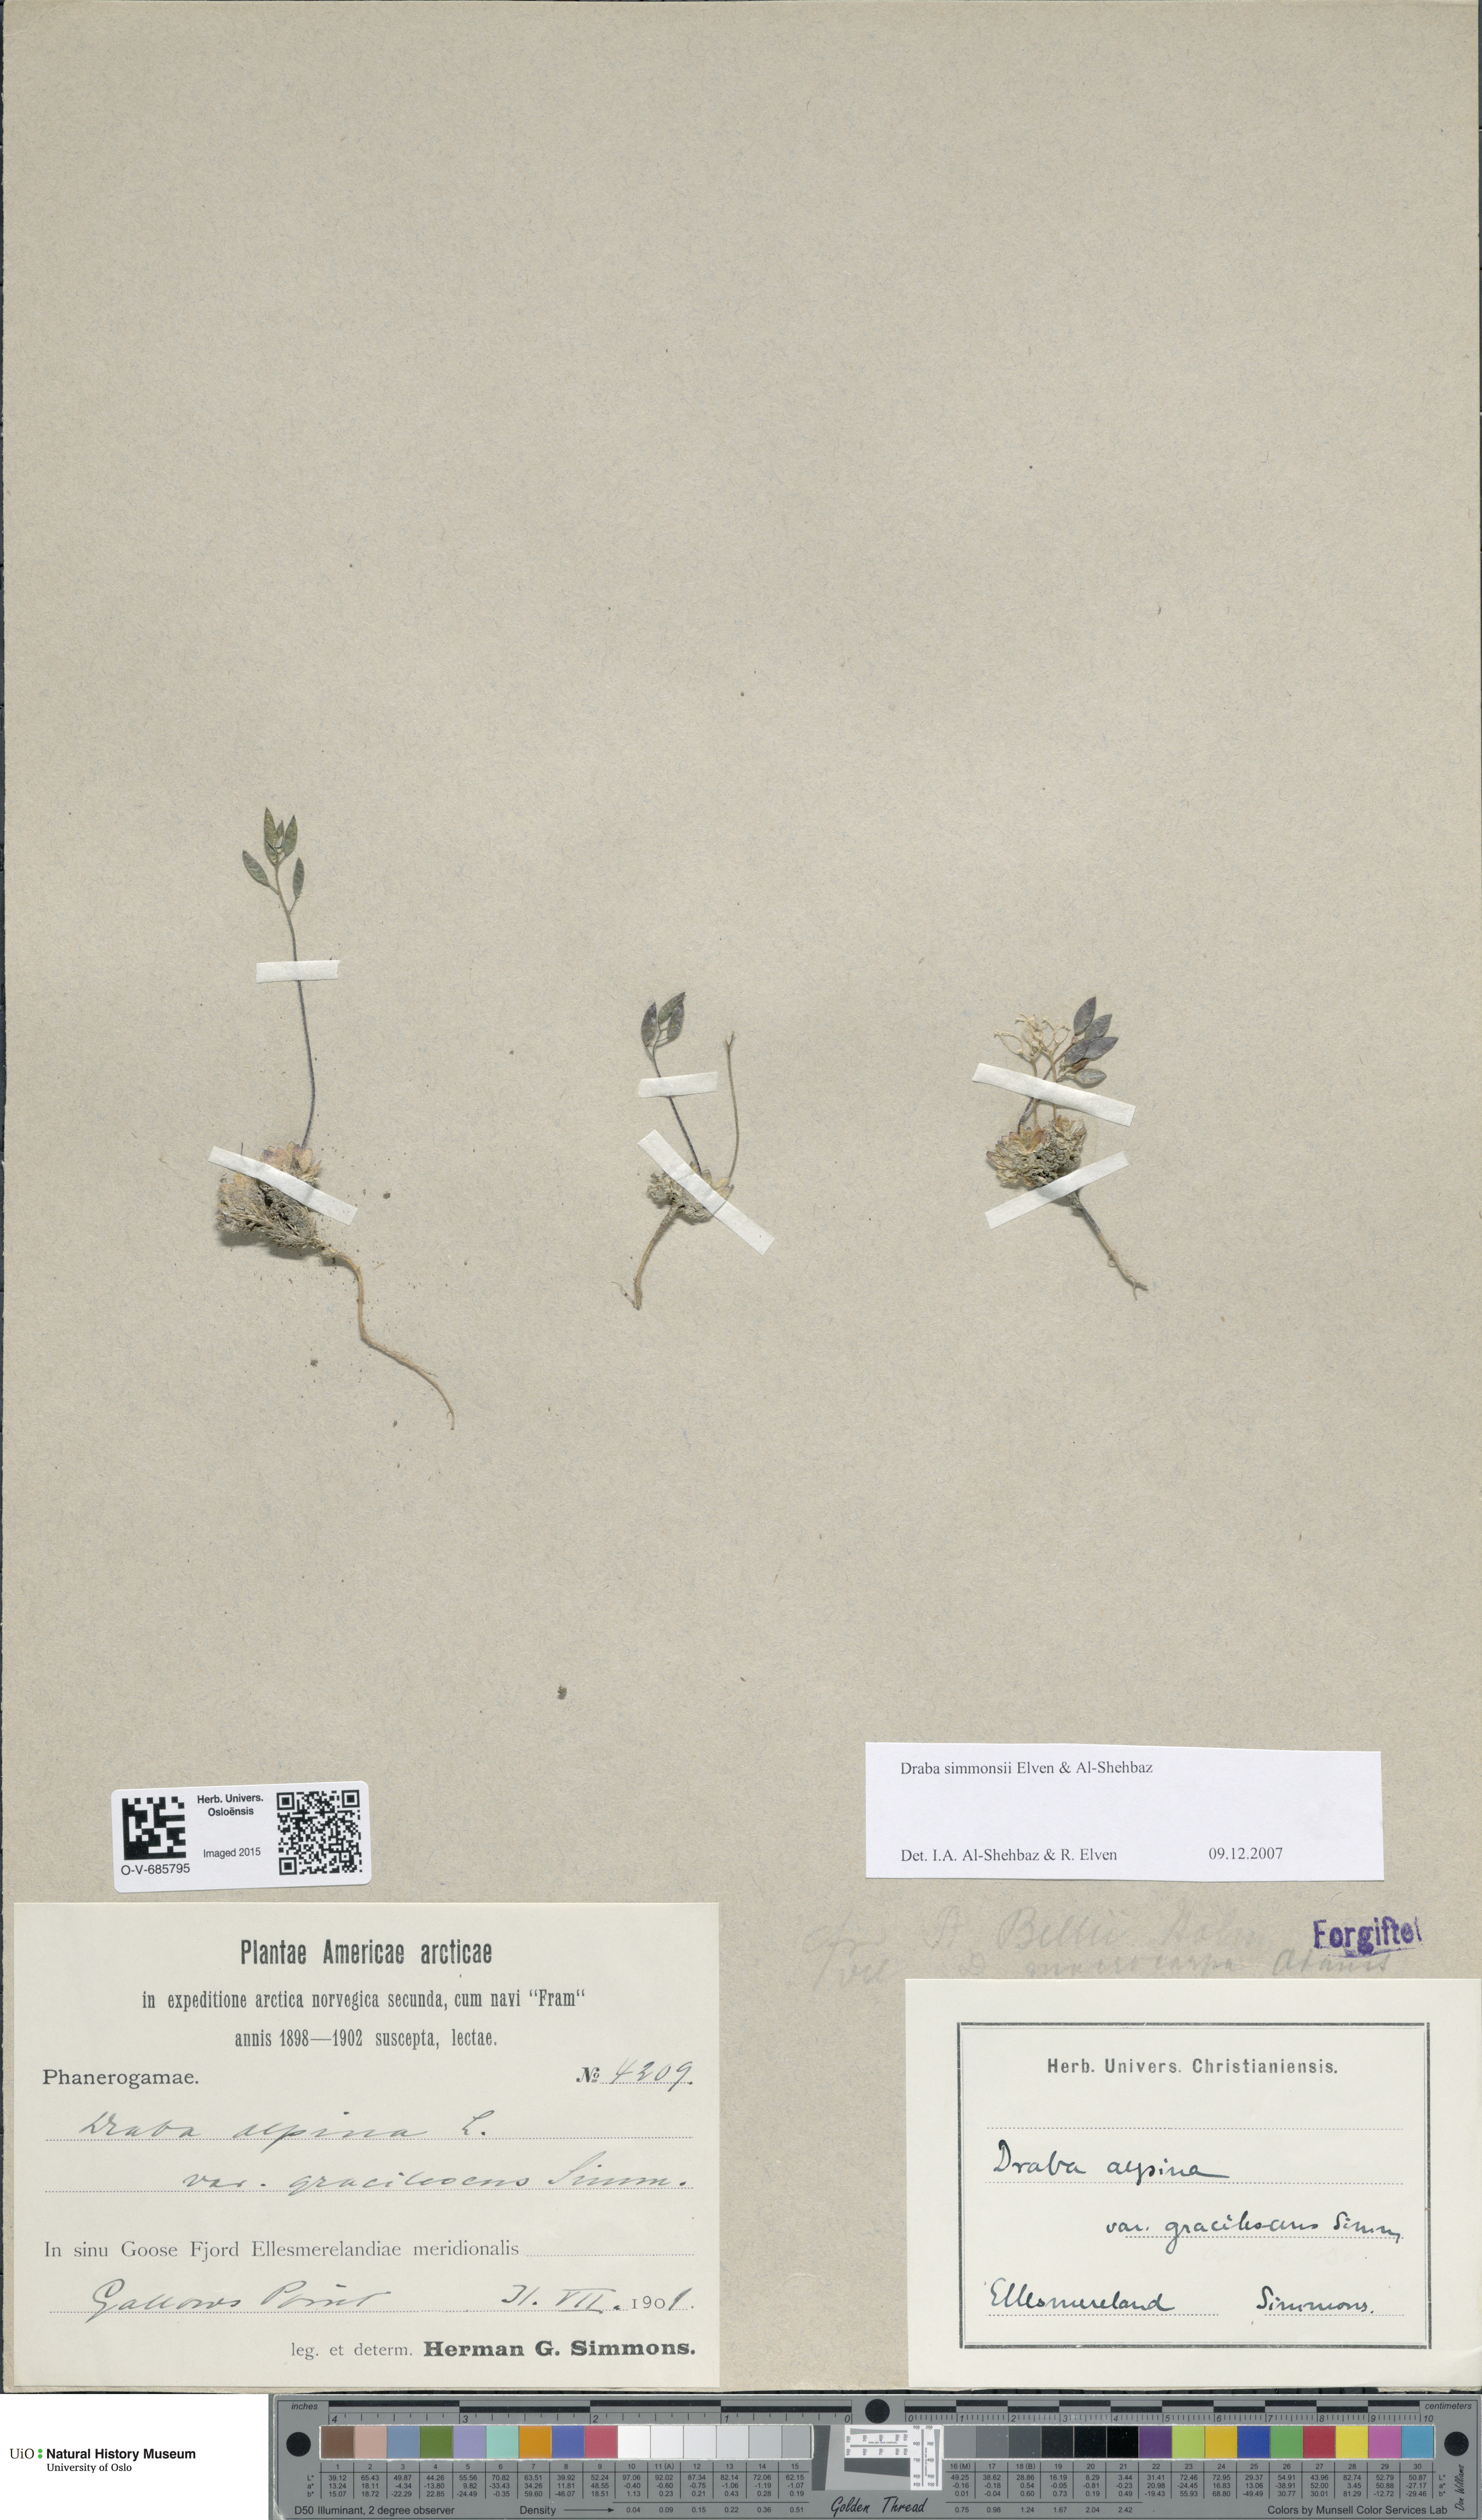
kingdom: Plantae
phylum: Tracheophyta
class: Magnoliopsida
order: Brassicales
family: Brassicaceae
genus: Draba
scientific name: Draba simmonsii
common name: Simmonds' whitlow-grass
